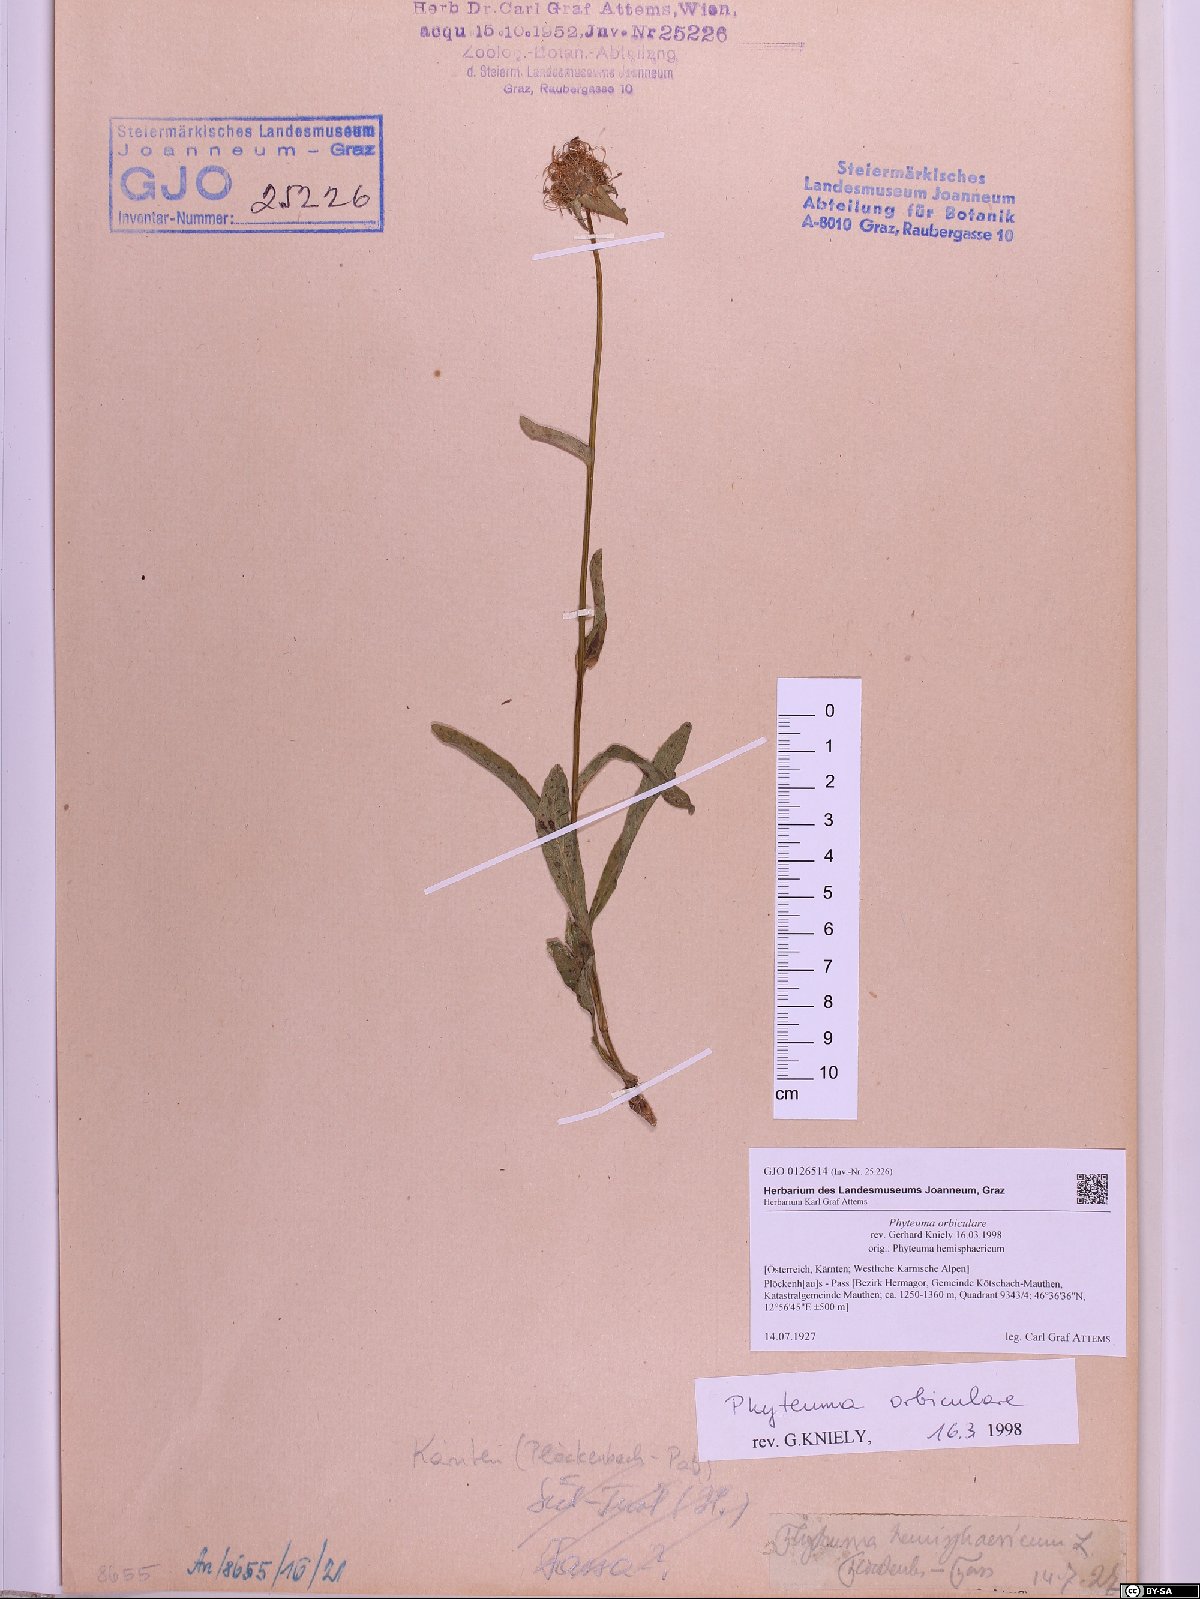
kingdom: Plantae
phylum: Tracheophyta
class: Magnoliopsida
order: Asterales
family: Campanulaceae
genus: Phyteuma
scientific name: Phyteuma orbiculare
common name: Round-headed rampion
